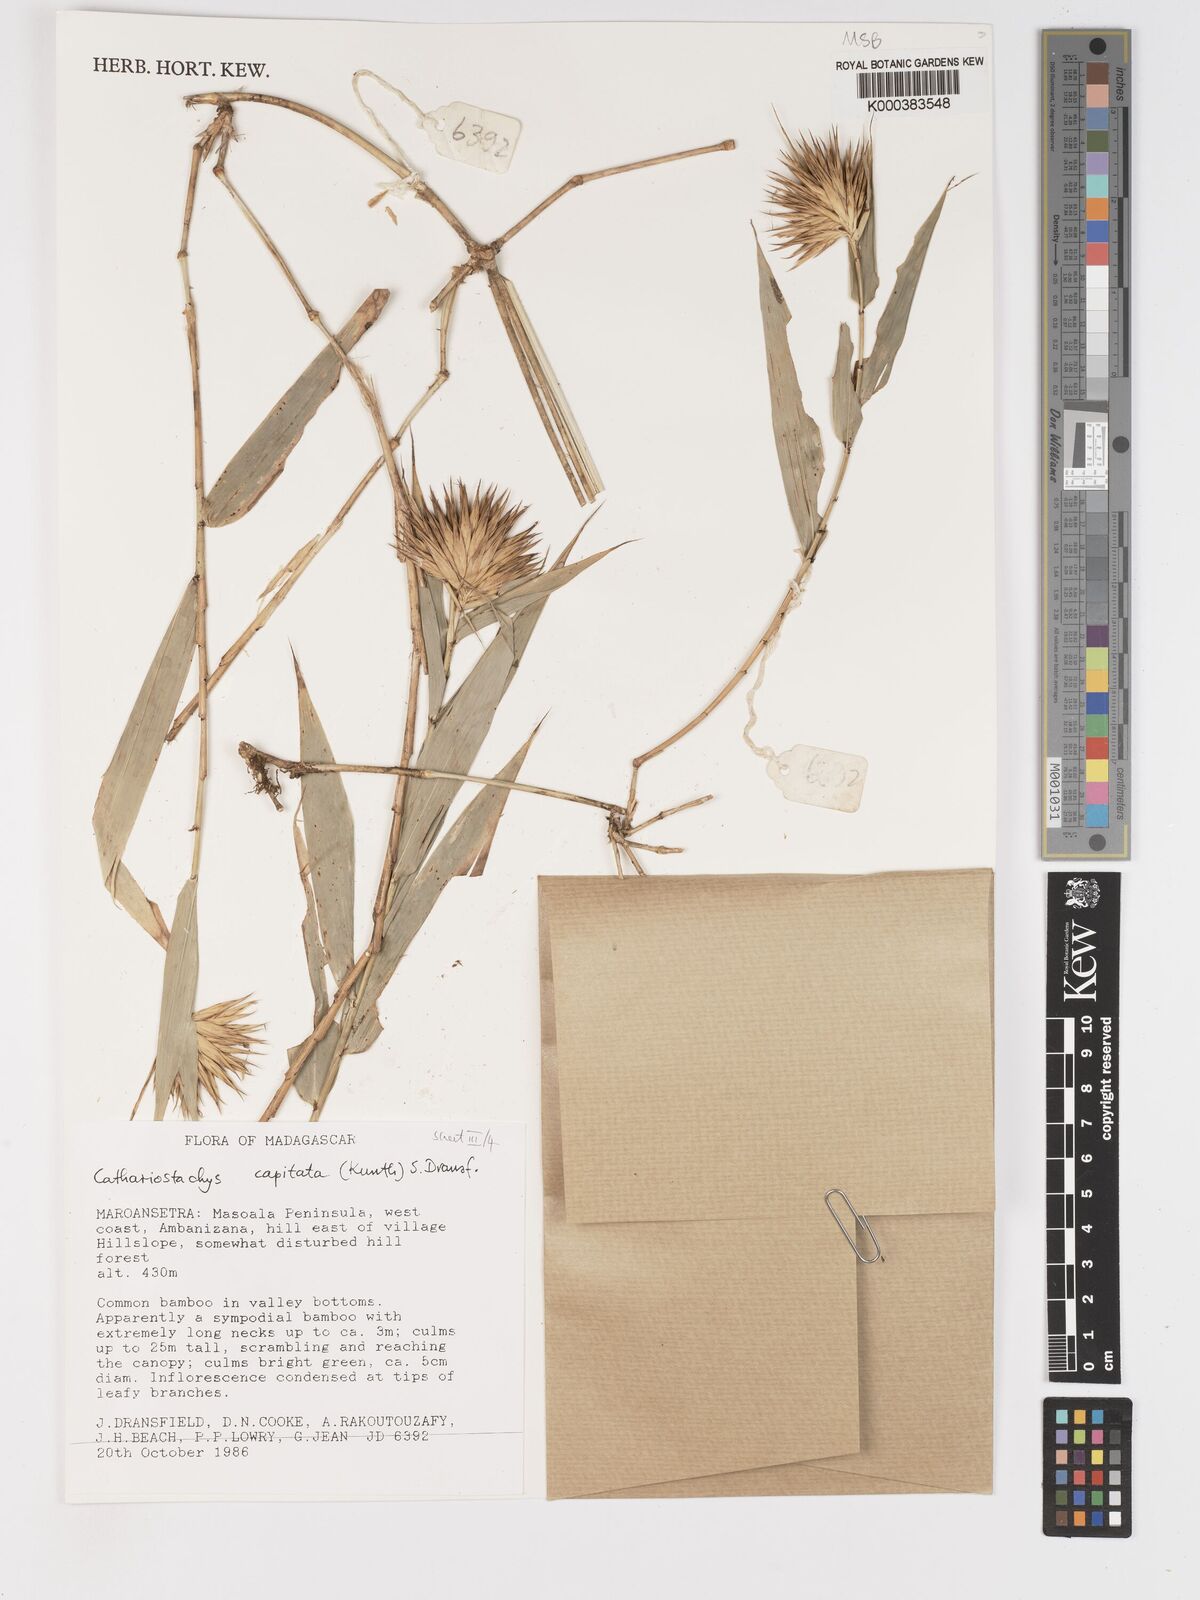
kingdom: Plantae
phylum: Tracheophyta
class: Liliopsida
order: Poales
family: Poaceae
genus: Cathariostachys
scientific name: Cathariostachys capitata
